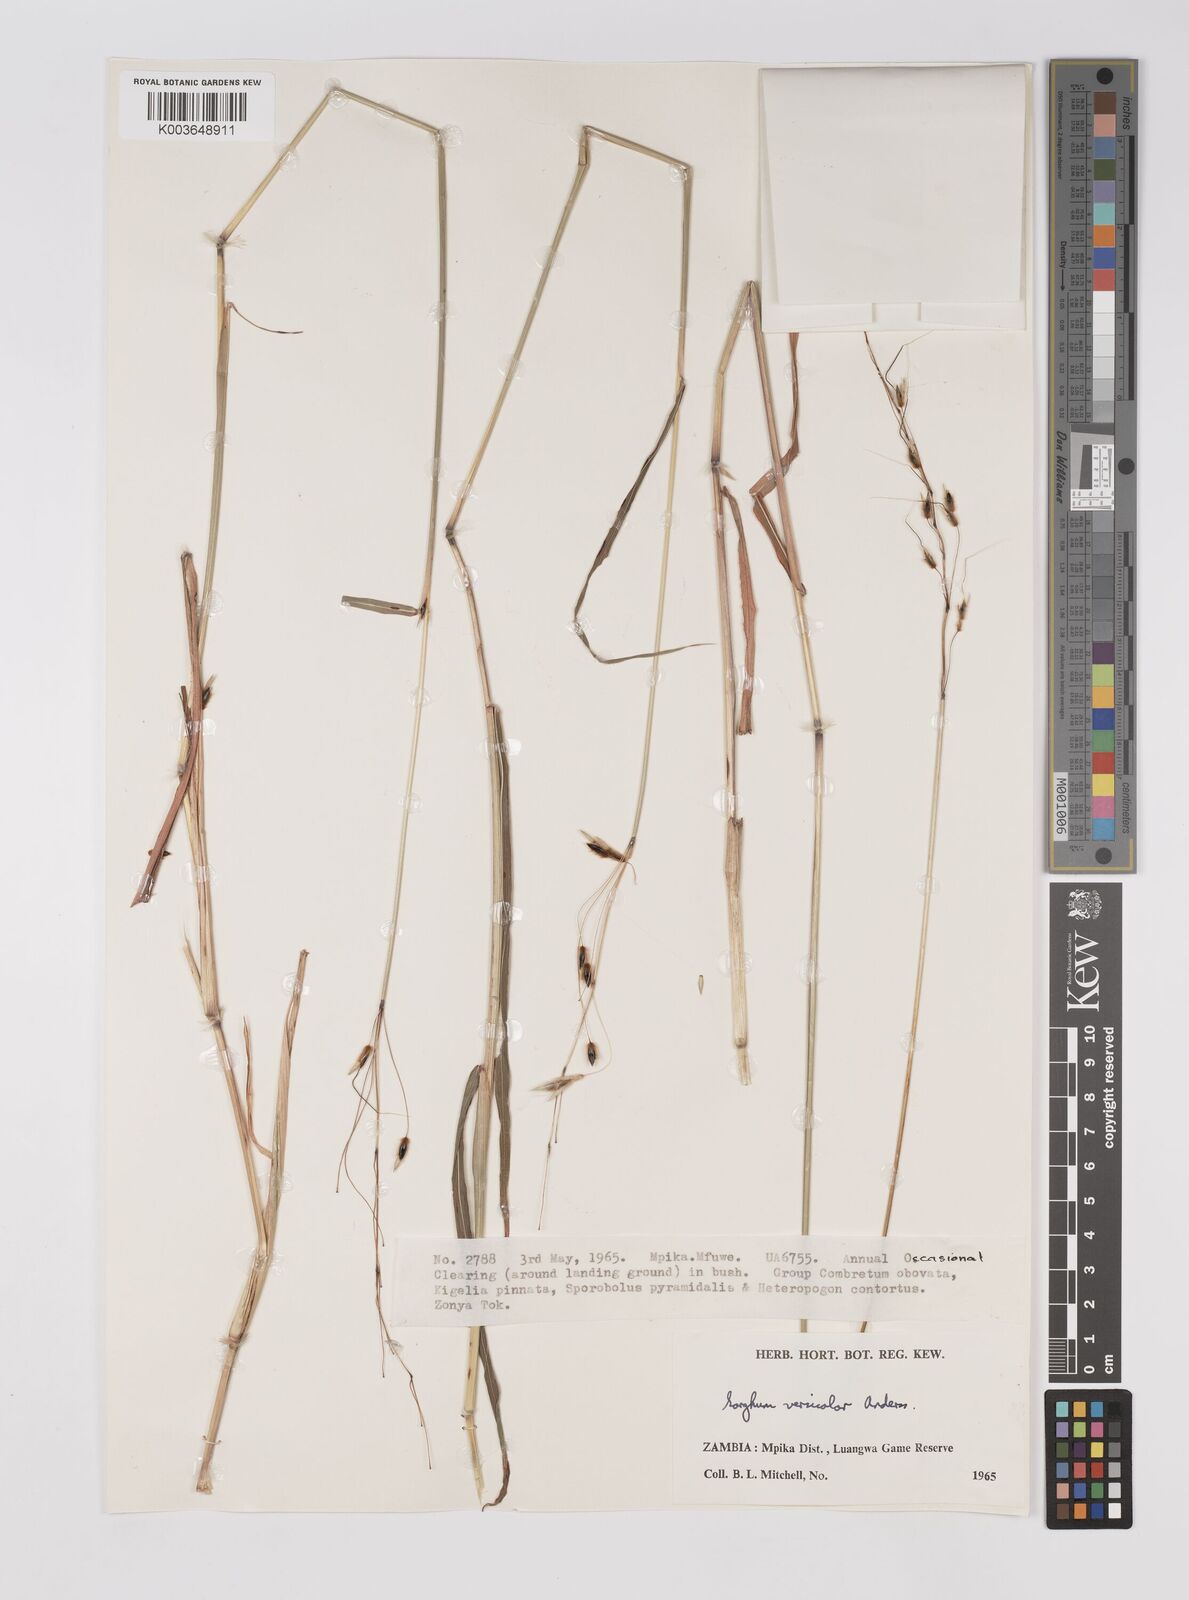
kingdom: Plantae
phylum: Tracheophyta
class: Liliopsida
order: Poales
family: Poaceae
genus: Sarga
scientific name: Sarga versicolor
